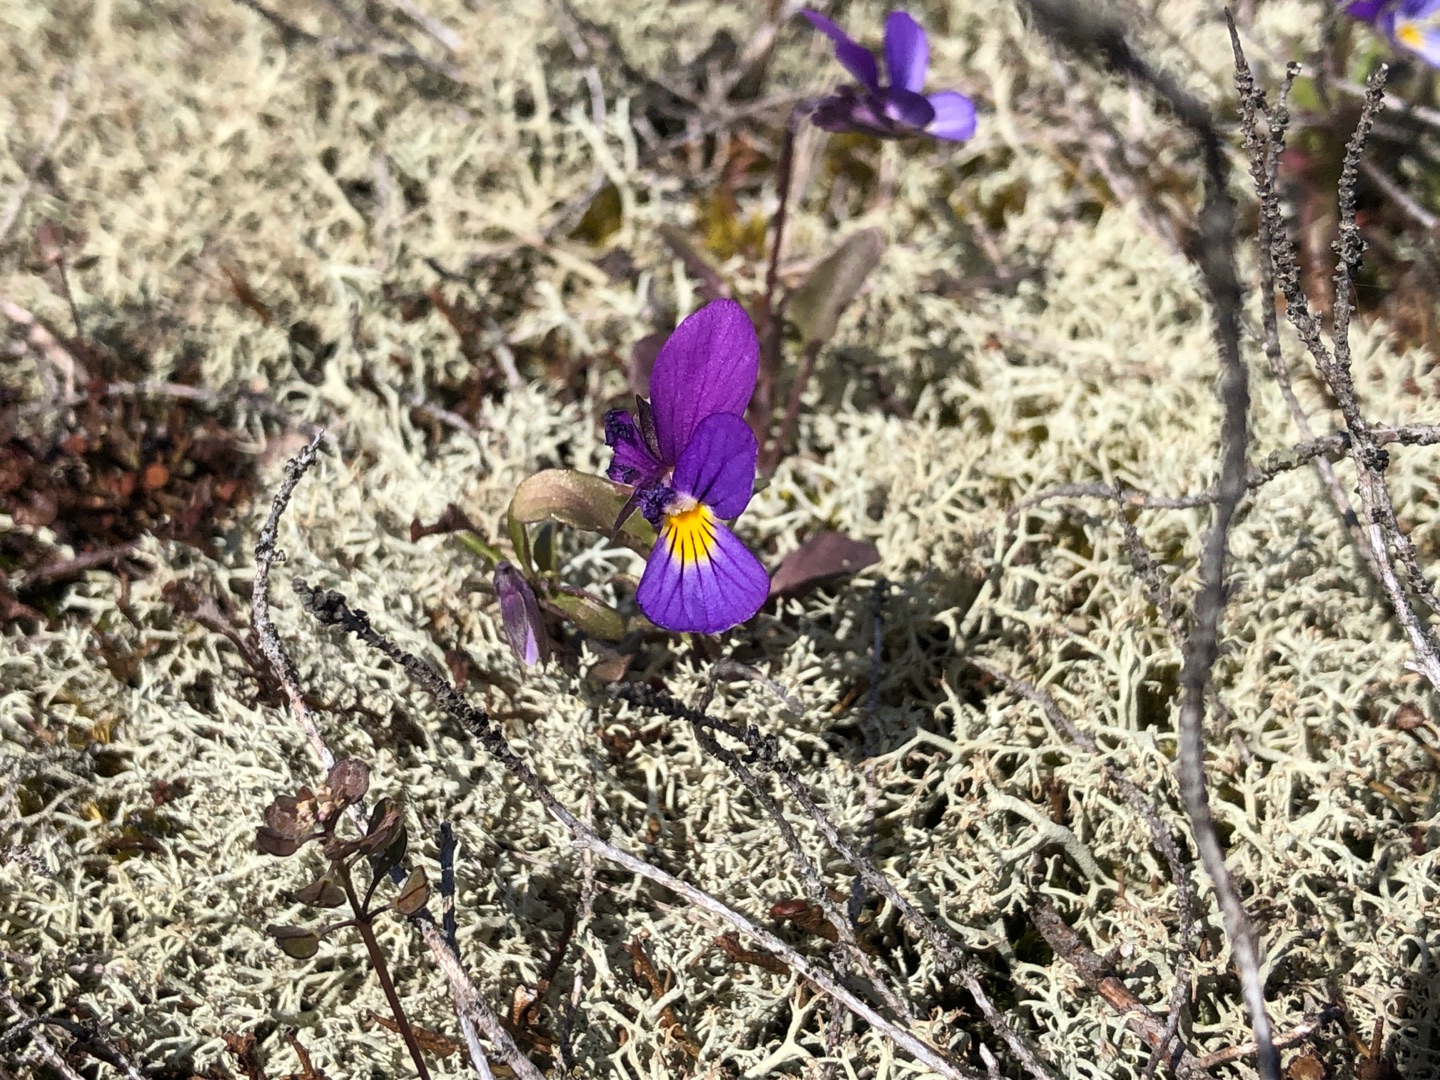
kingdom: Plantae
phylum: Tracheophyta
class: Magnoliopsida
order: Malpighiales
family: Violaceae
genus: Viola
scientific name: Viola tricolor
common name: Stedmoderblomst
